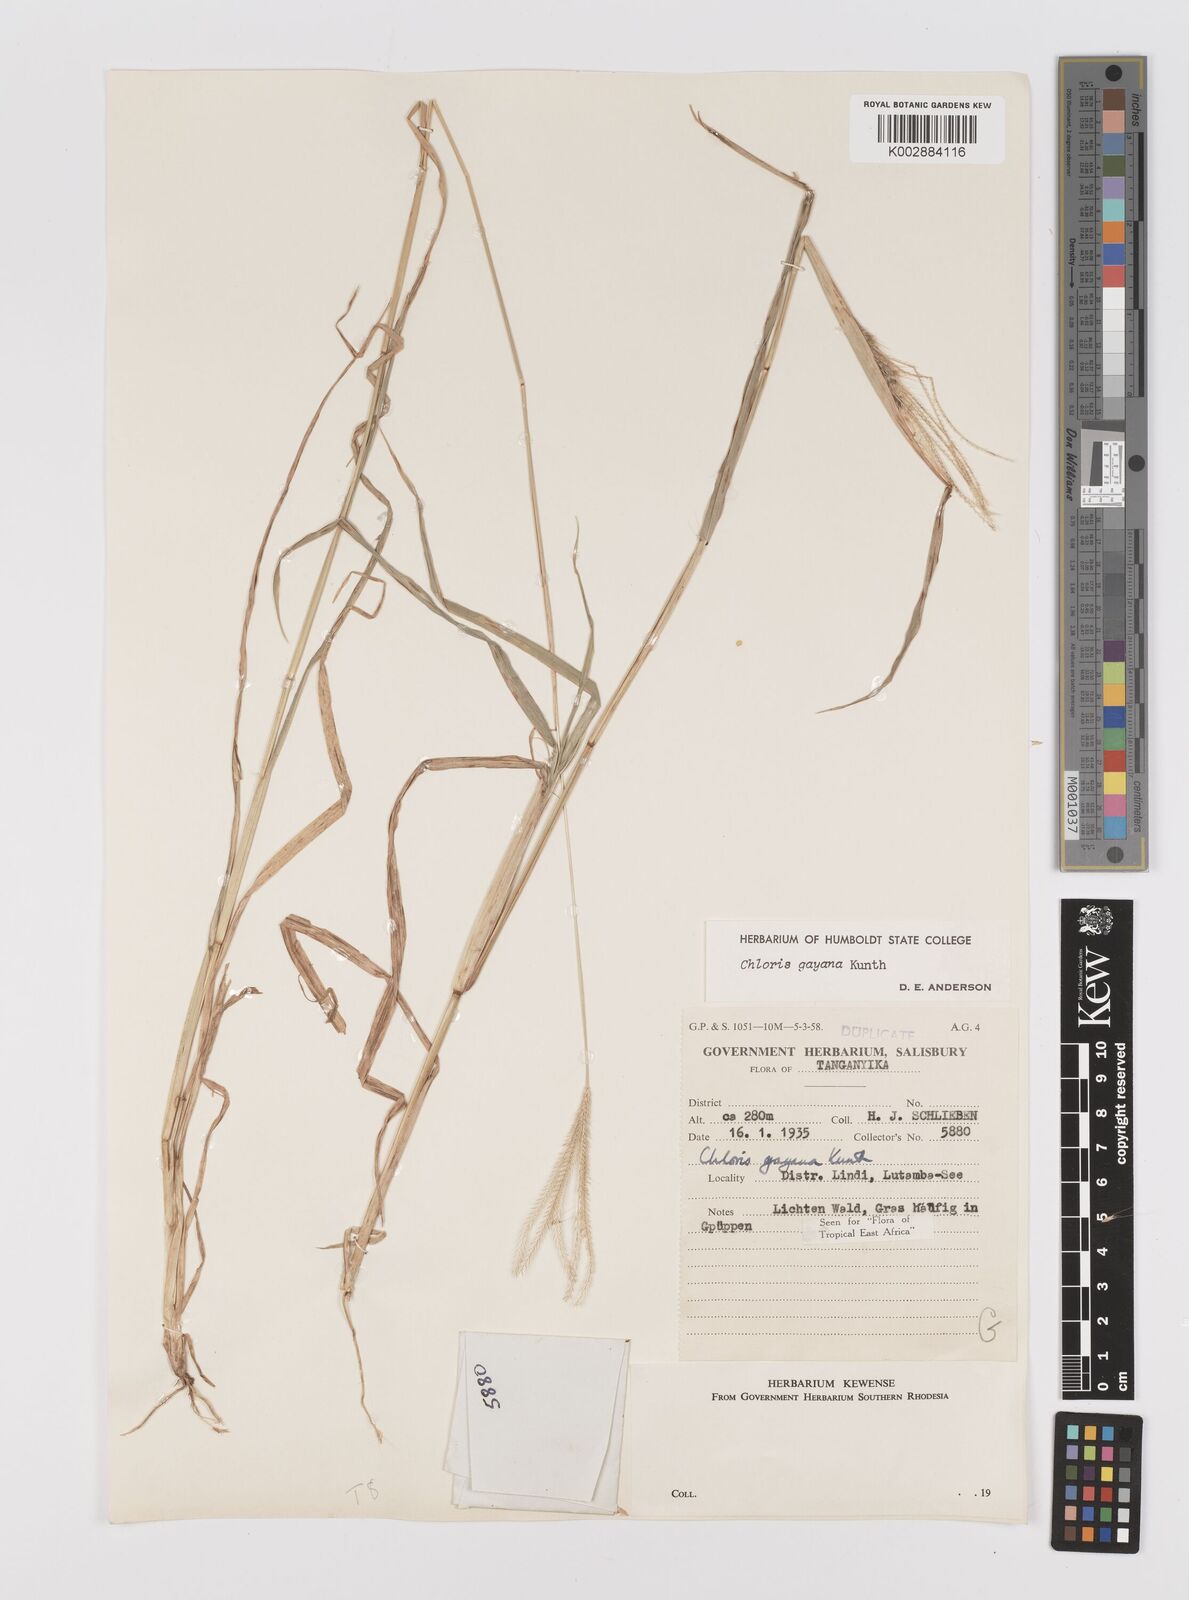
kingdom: Plantae
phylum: Tracheophyta
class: Liliopsida
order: Poales
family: Poaceae
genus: Chloris
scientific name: Chloris gayana
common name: Rhodes grass
